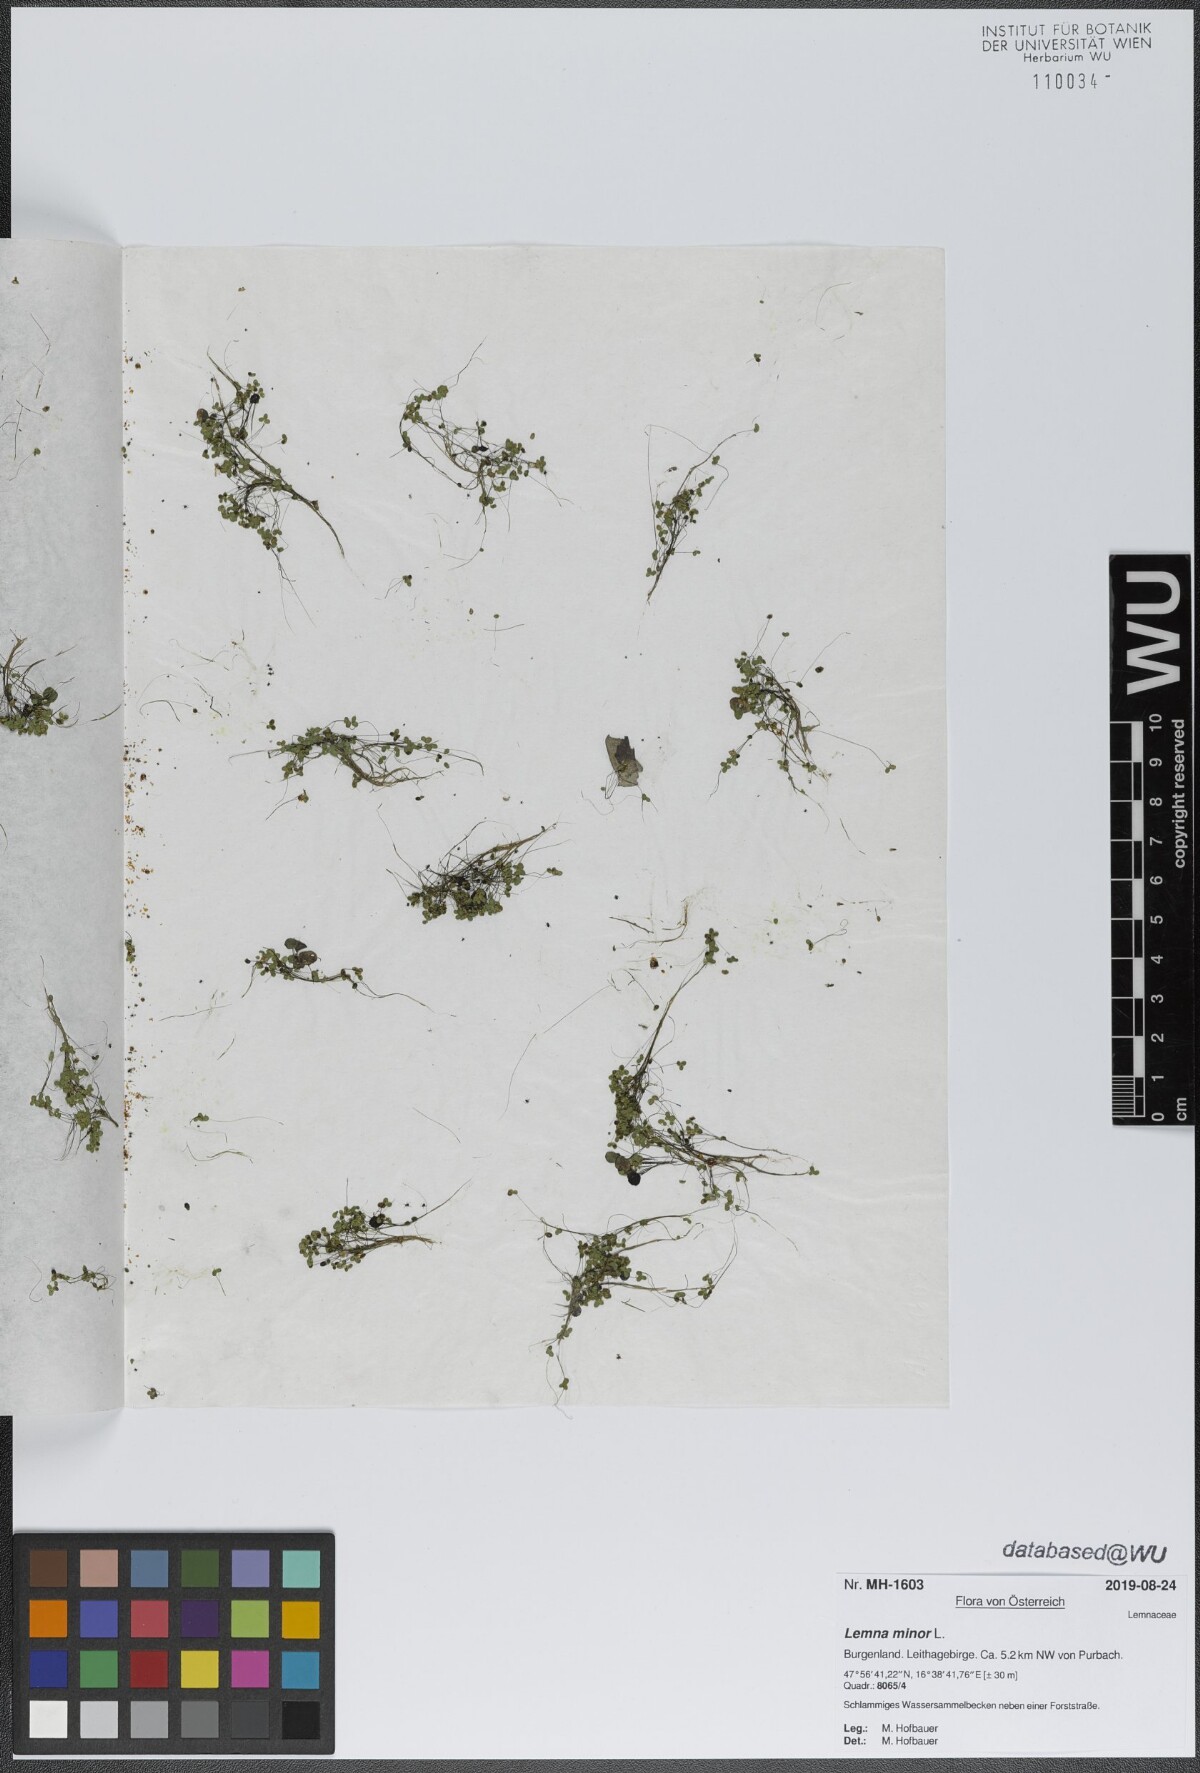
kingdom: Plantae
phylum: Tracheophyta
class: Liliopsida
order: Alismatales
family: Araceae
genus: Lemna
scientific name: Lemna minor
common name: Common duckweed
